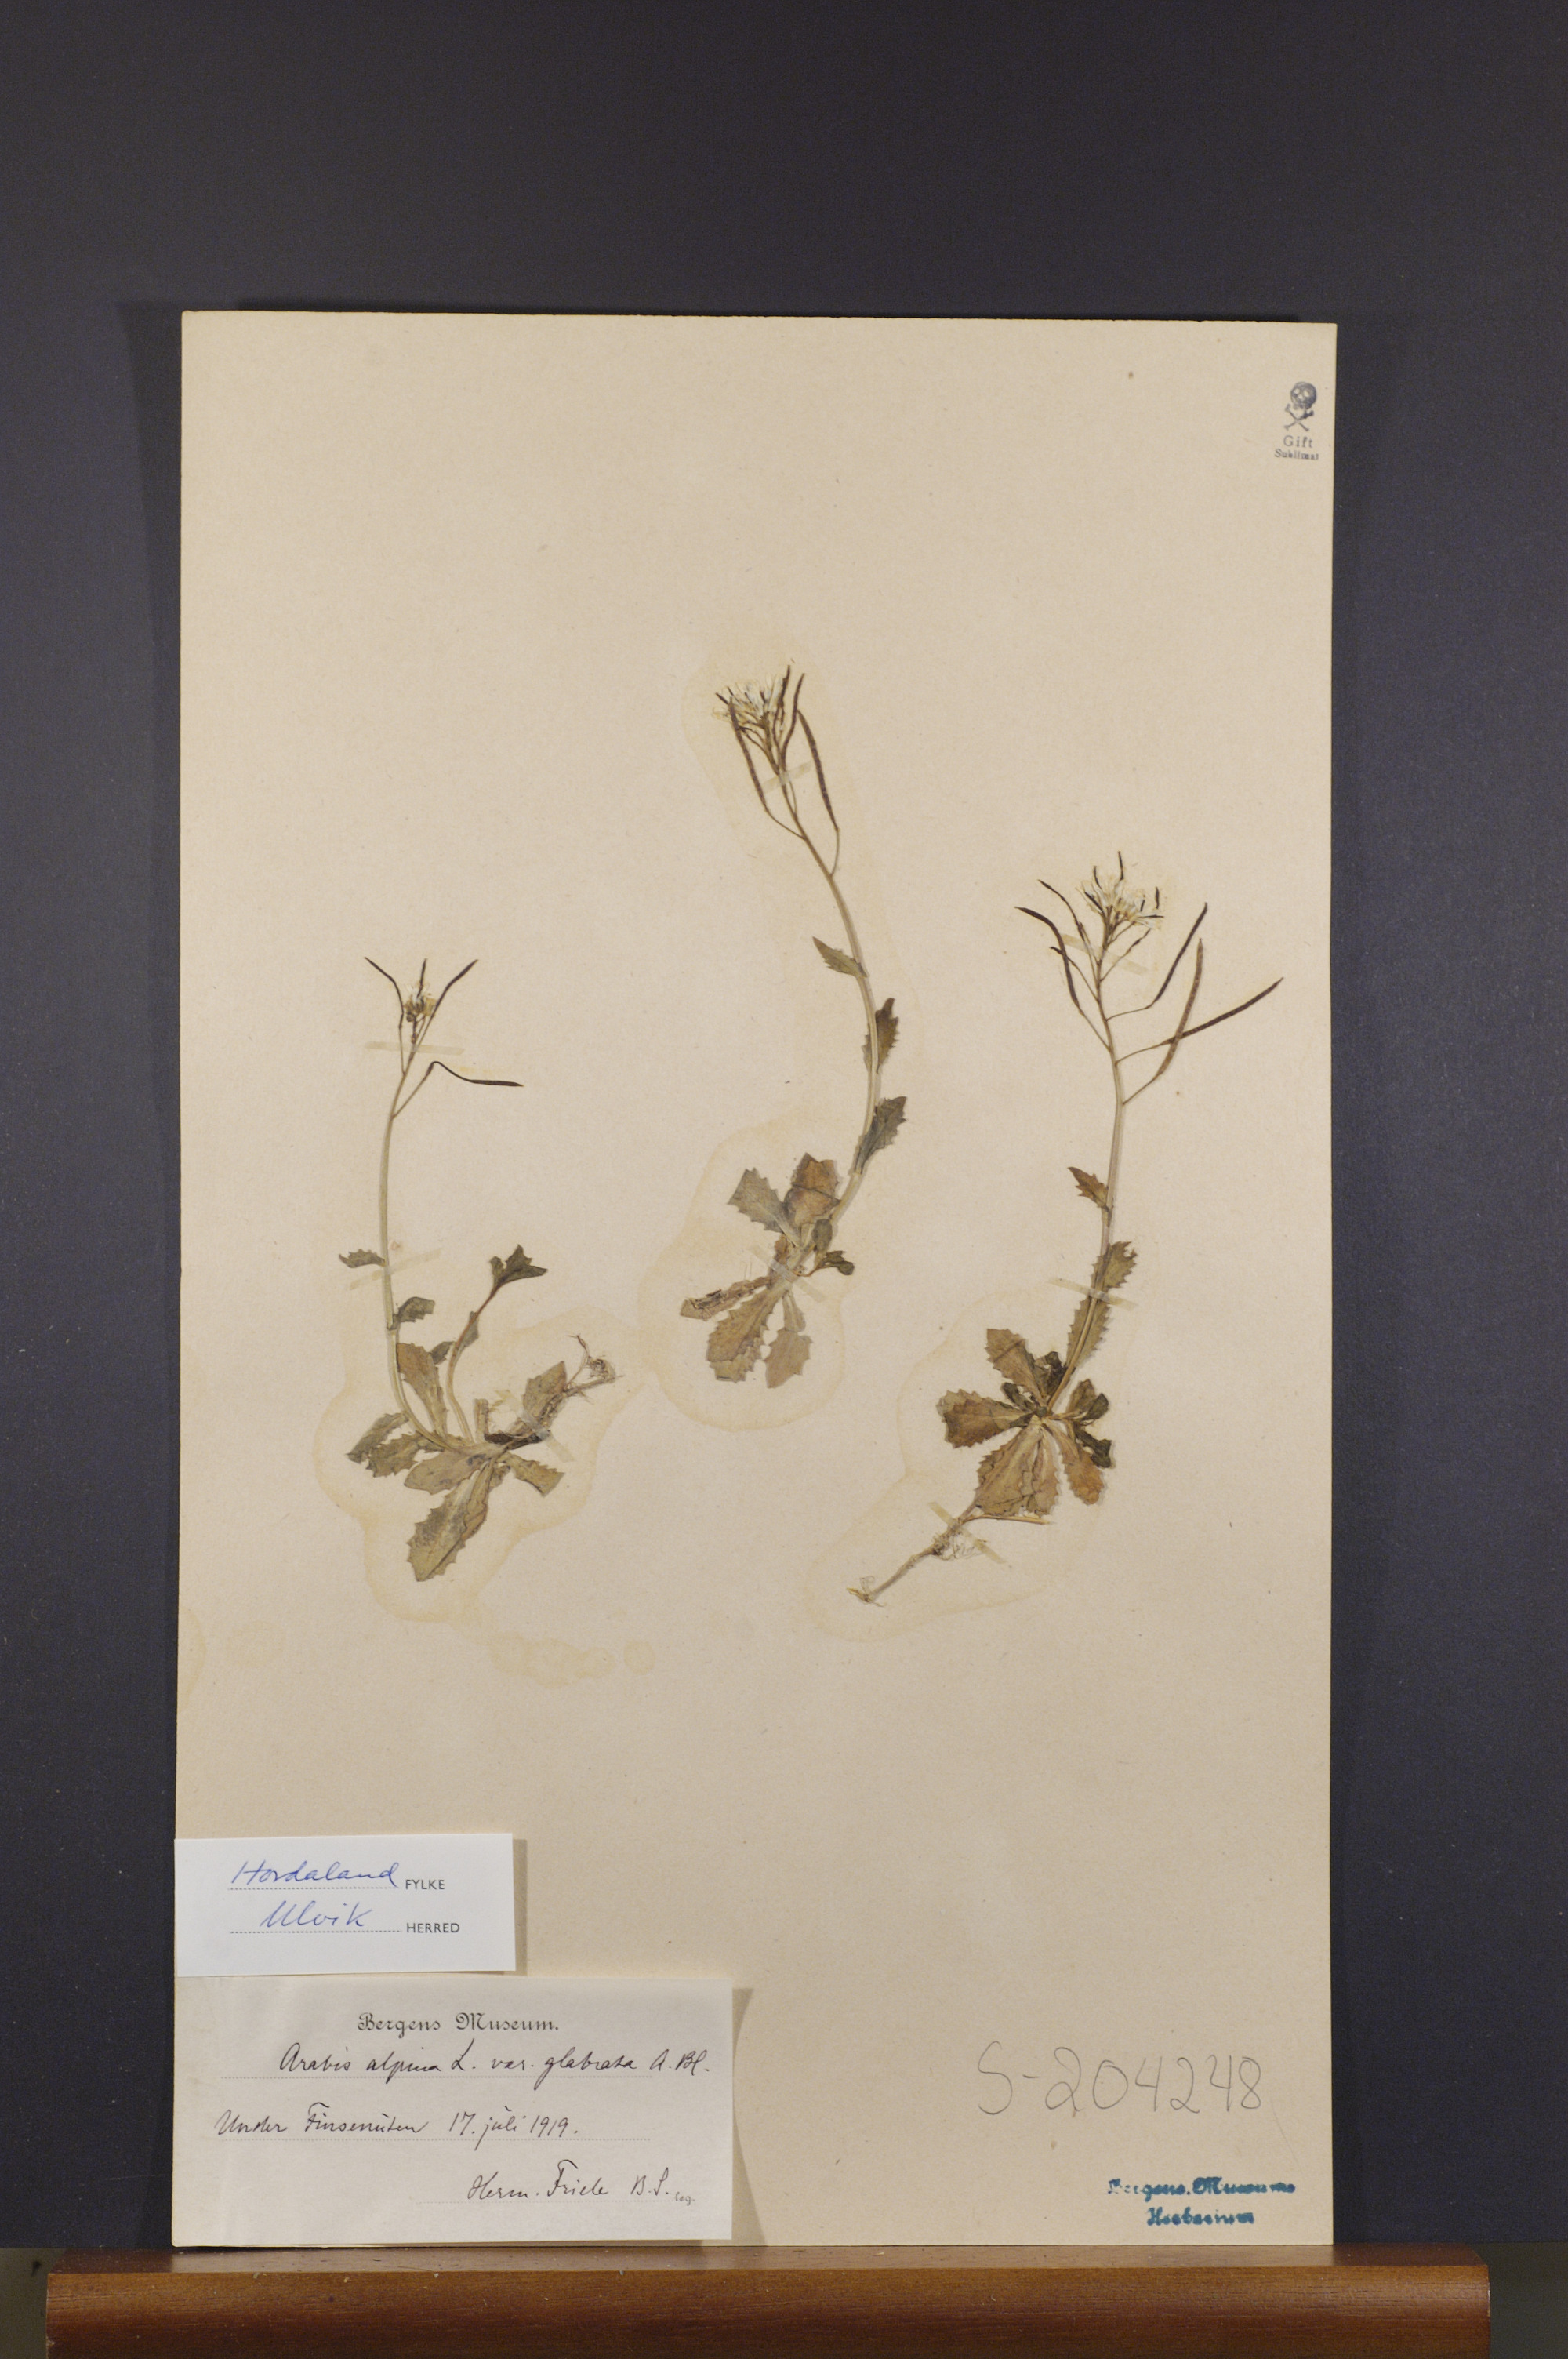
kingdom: Plantae
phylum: Tracheophyta
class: Magnoliopsida
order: Brassicales
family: Brassicaceae
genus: Arabis
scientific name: Arabis alpina
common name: Alpine rock-cress
